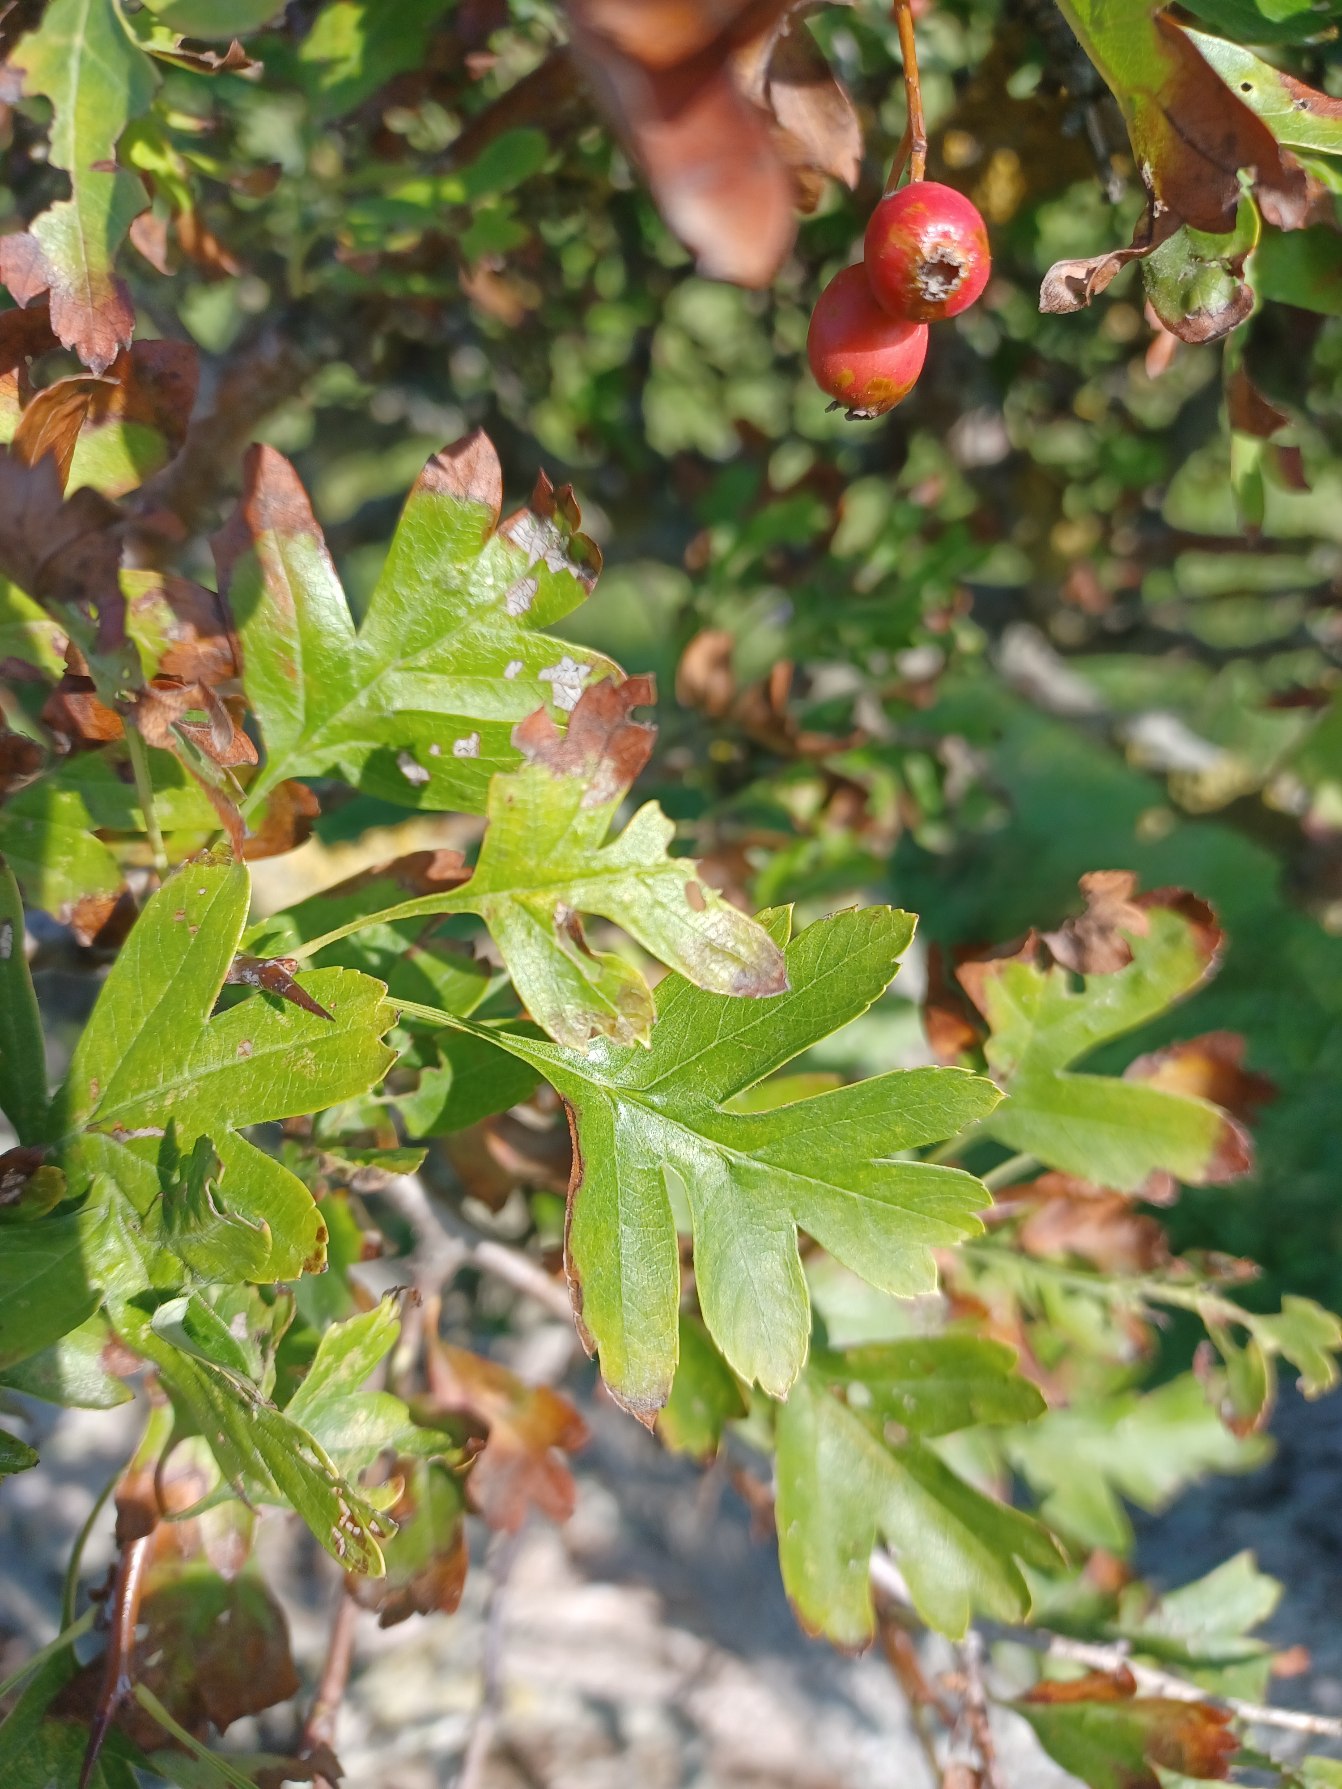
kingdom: Plantae
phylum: Tracheophyta
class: Magnoliopsida
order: Rosales
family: Rosaceae
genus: Crataegus
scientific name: Crataegus monogyna
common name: Engriflet hvidtjørn
